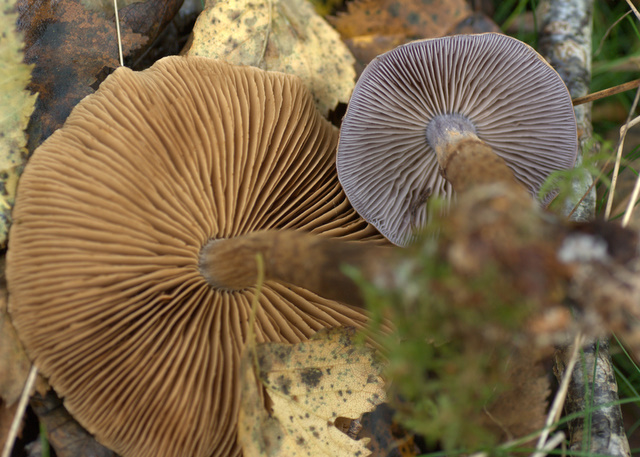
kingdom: Fungi
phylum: Basidiomycota
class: Agaricomycetes
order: Agaricales
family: Cortinariaceae
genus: Cortinarius
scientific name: Cortinarius pholideus
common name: brunskællet slørhat
